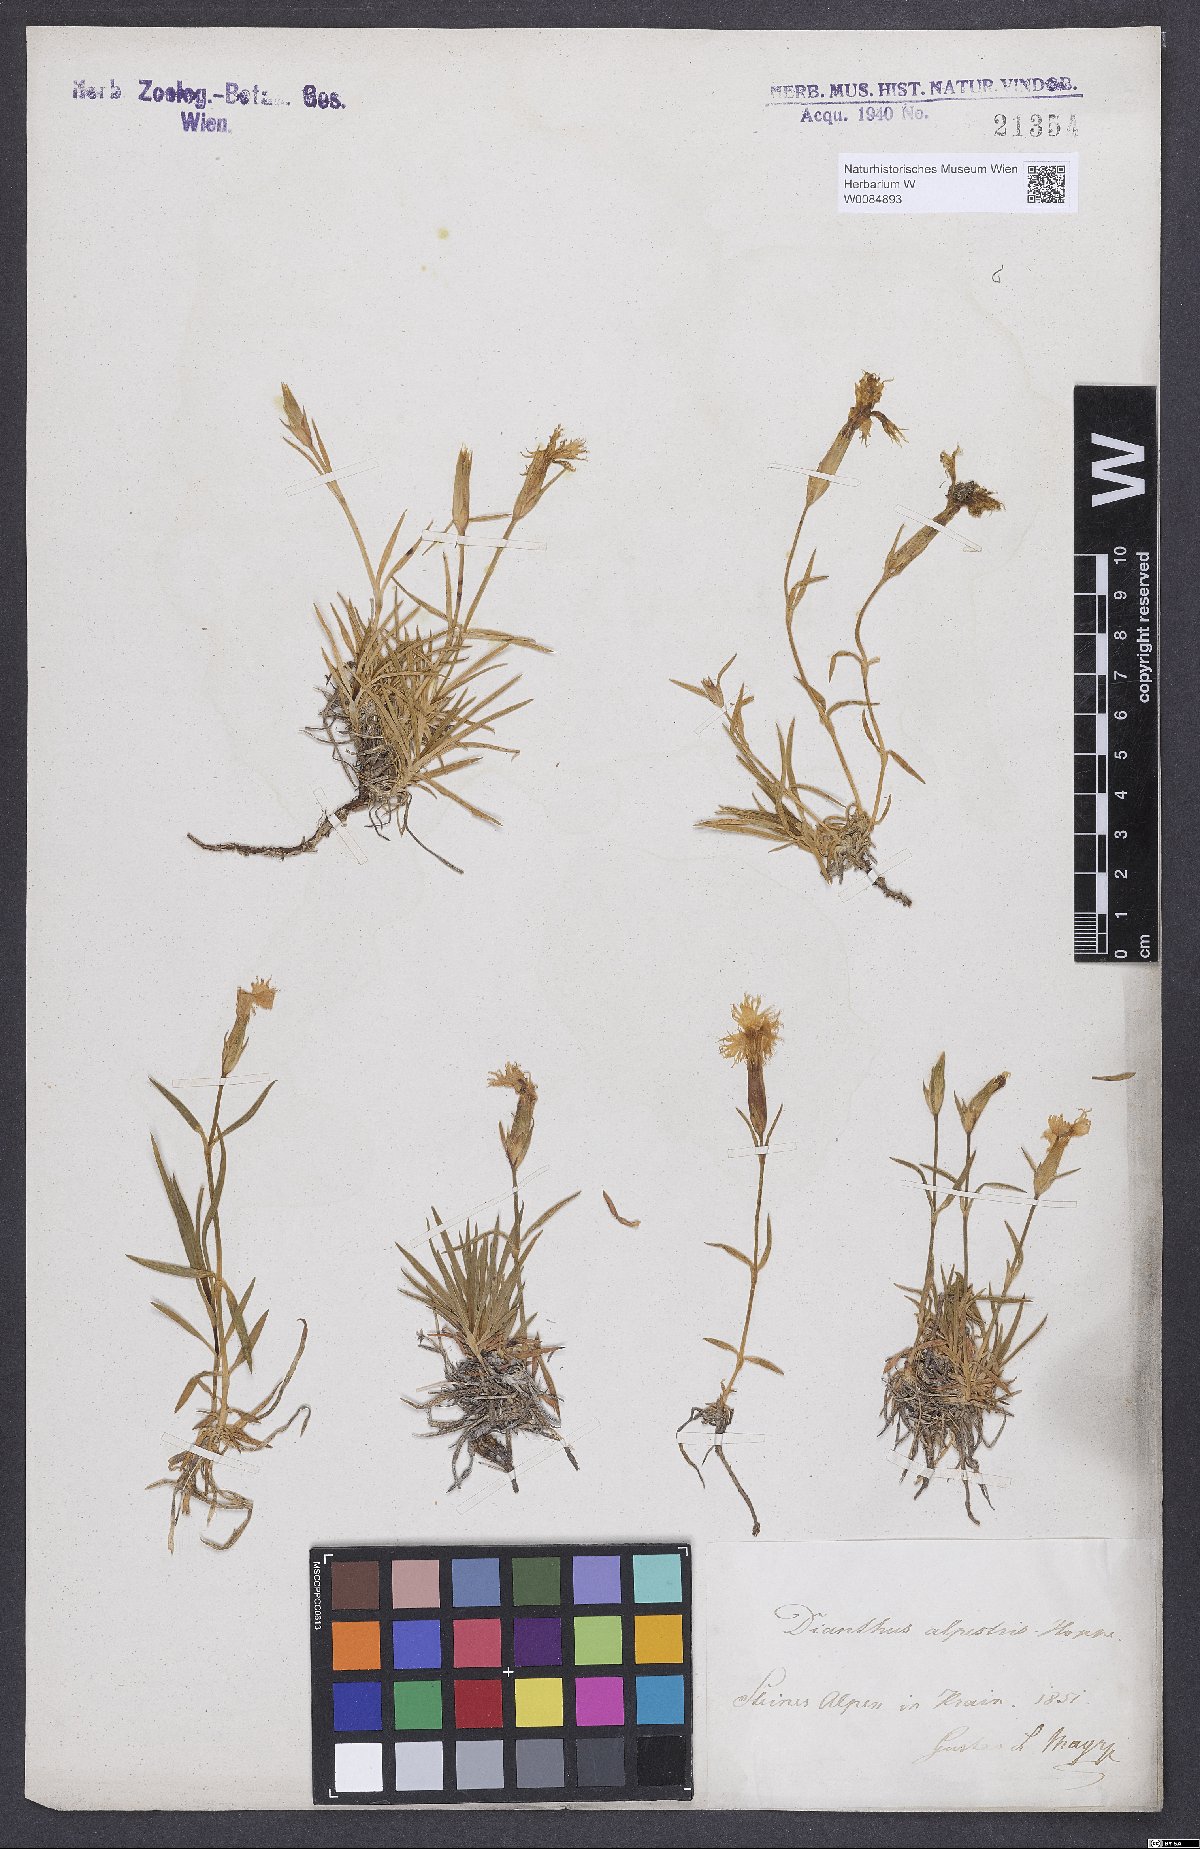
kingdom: Plantae
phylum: Tracheophyta
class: Magnoliopsida
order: Caryophyllales
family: Caryophyllaceae
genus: Dianthus
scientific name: Dianthus hyssopifolius
